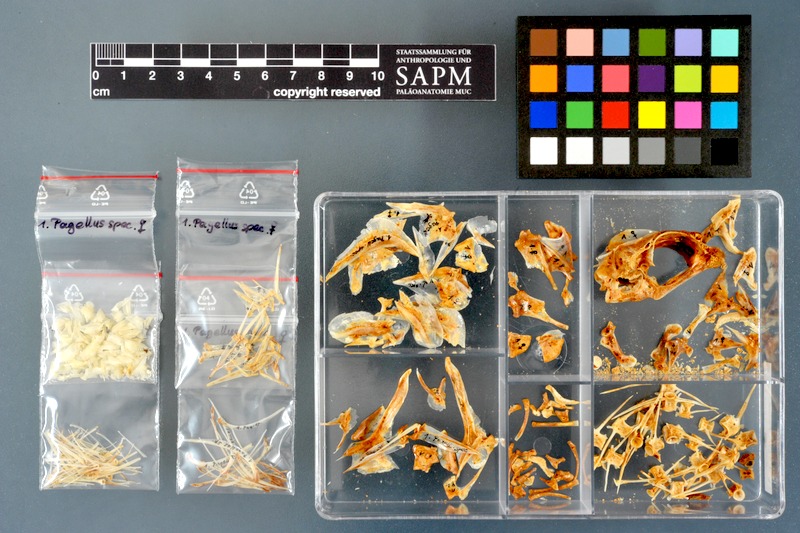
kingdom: Animalia
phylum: Chordata
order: Perciformes
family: Sparidae
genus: Pagellus
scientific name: Pagellus
